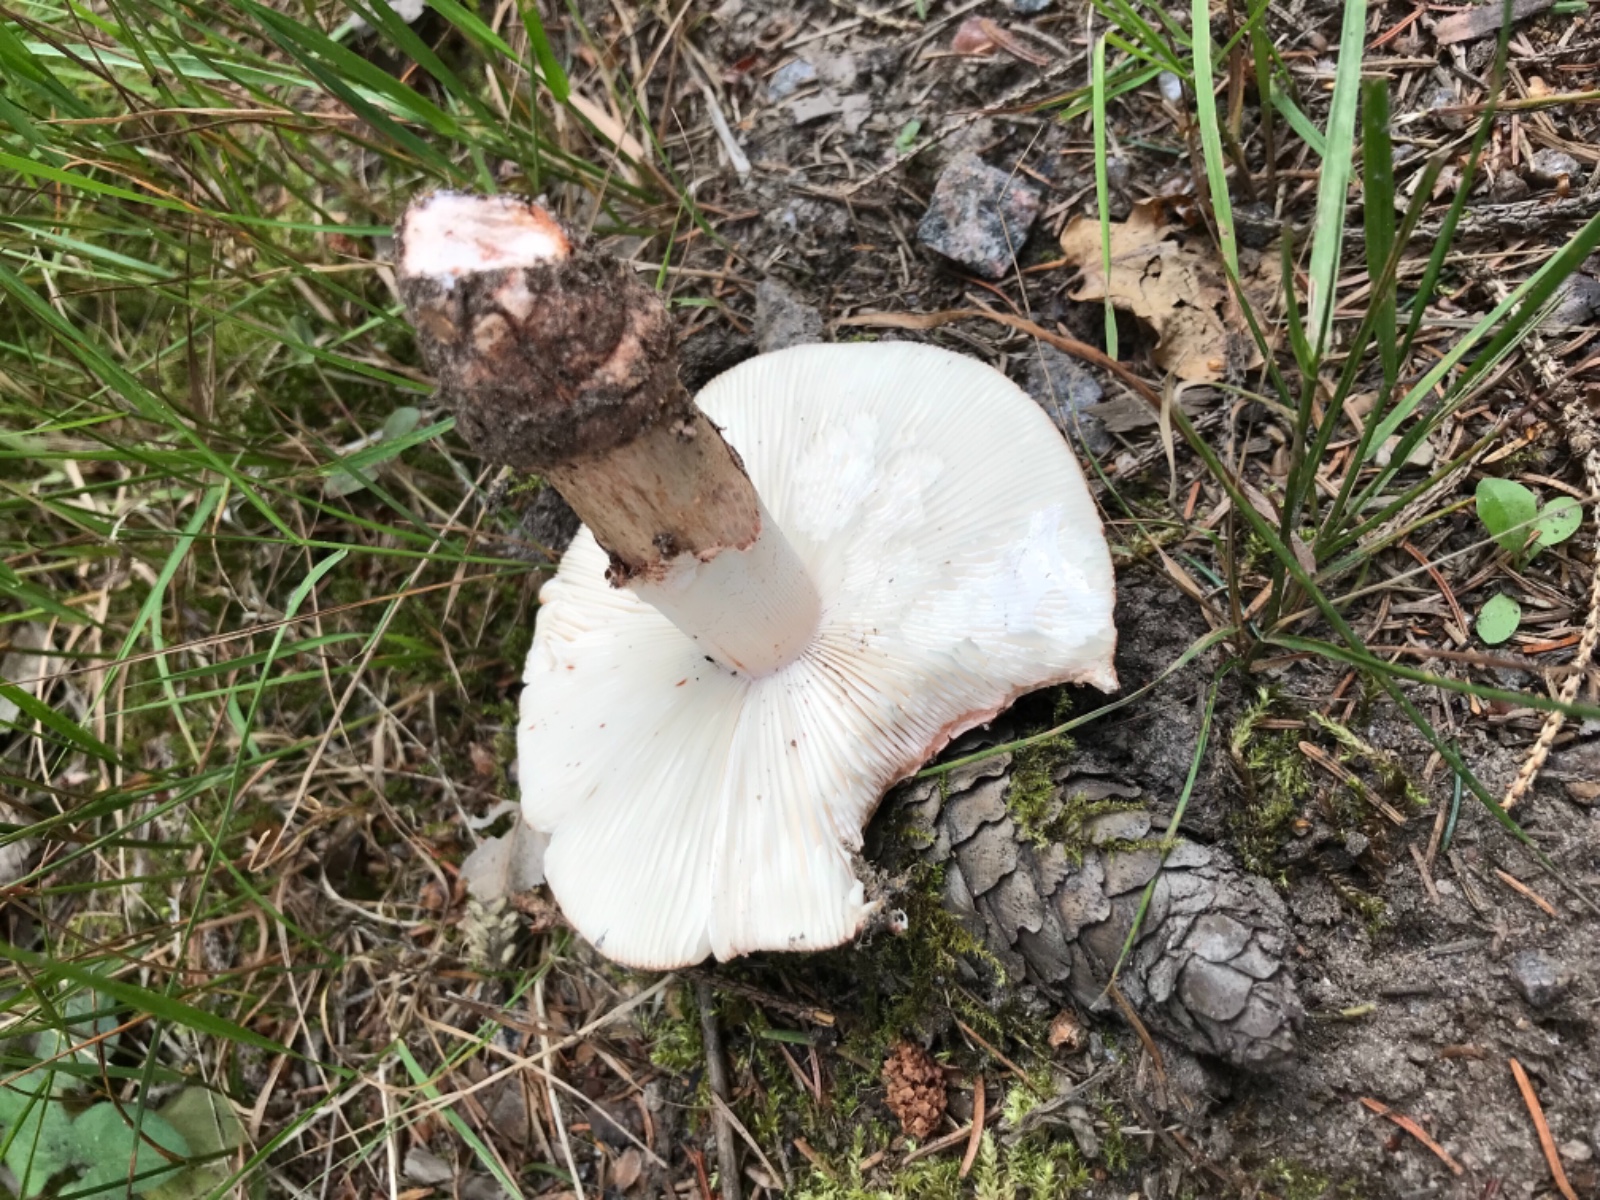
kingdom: Fungi
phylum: Basidiomycota
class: Agaricomycetes
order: Agaricales
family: Amanitaceae
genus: Amanita
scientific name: Amanita rubescens
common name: rødmende fluesvamp
